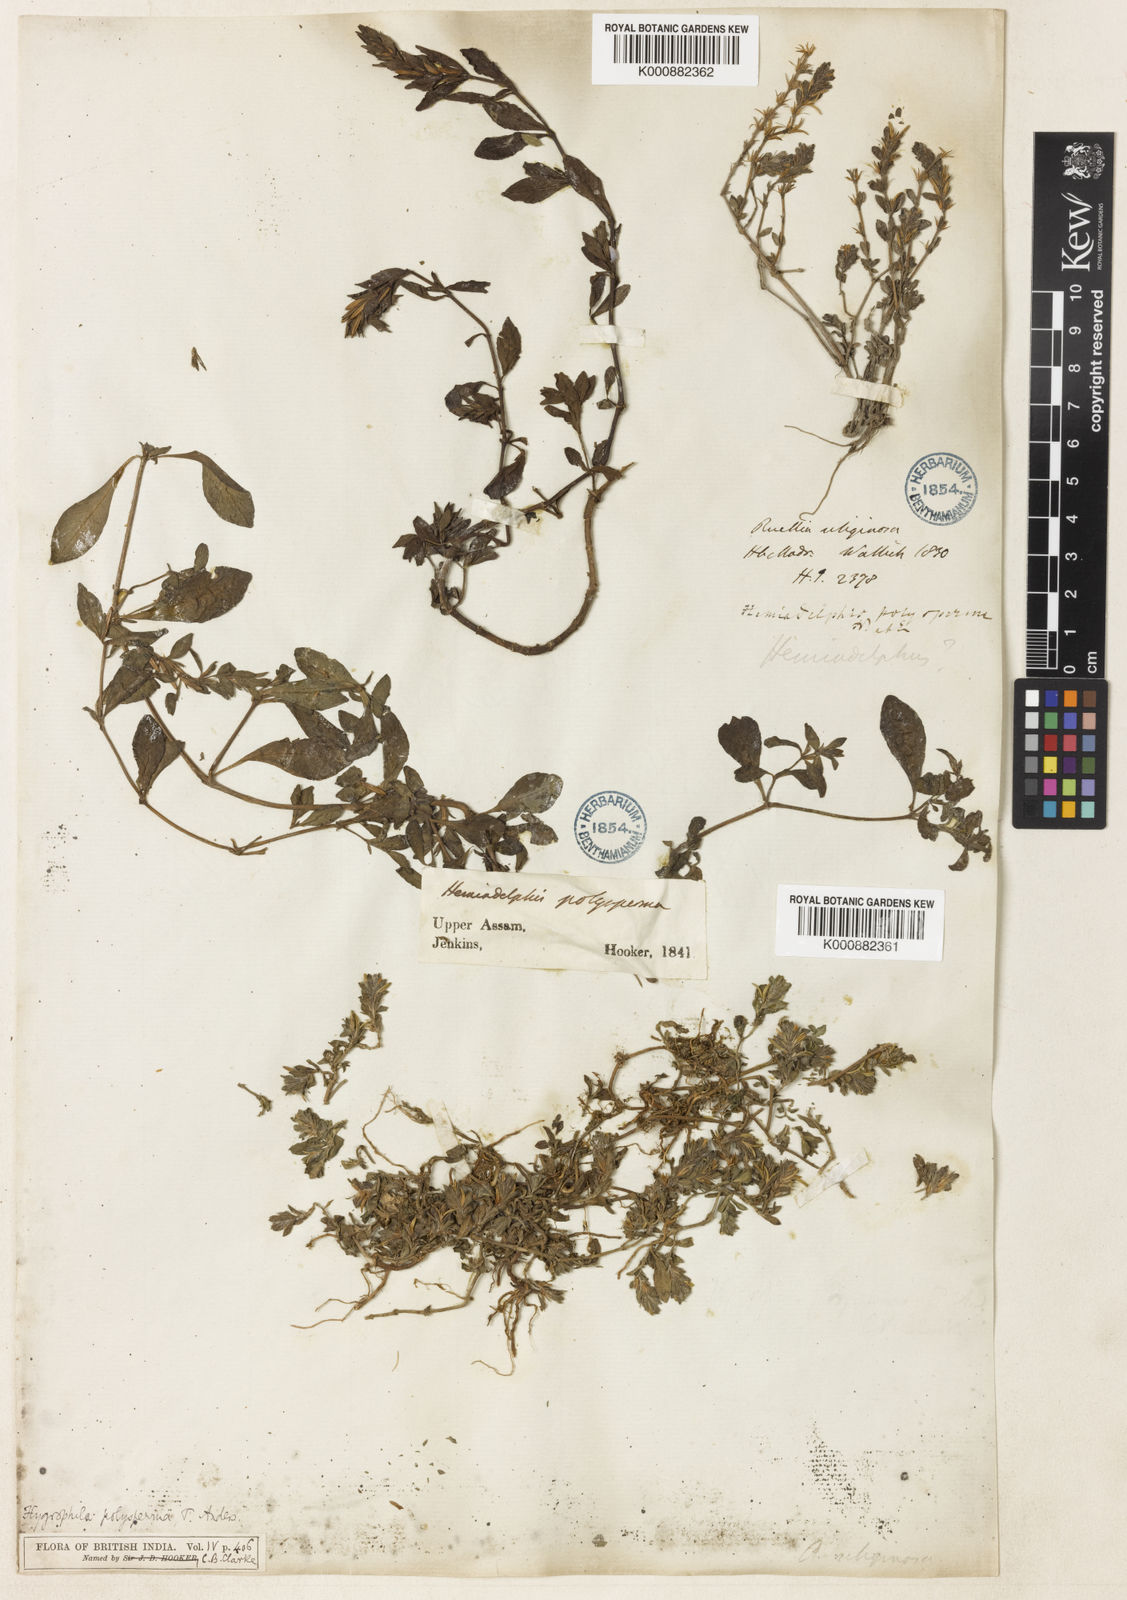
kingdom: Plantae
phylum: Tracheophyta
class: Magnoliopsida
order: Lamiales
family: Acanthaceae
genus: Hygrophila
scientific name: Hygrophila polysperma
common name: Indian swampweed
